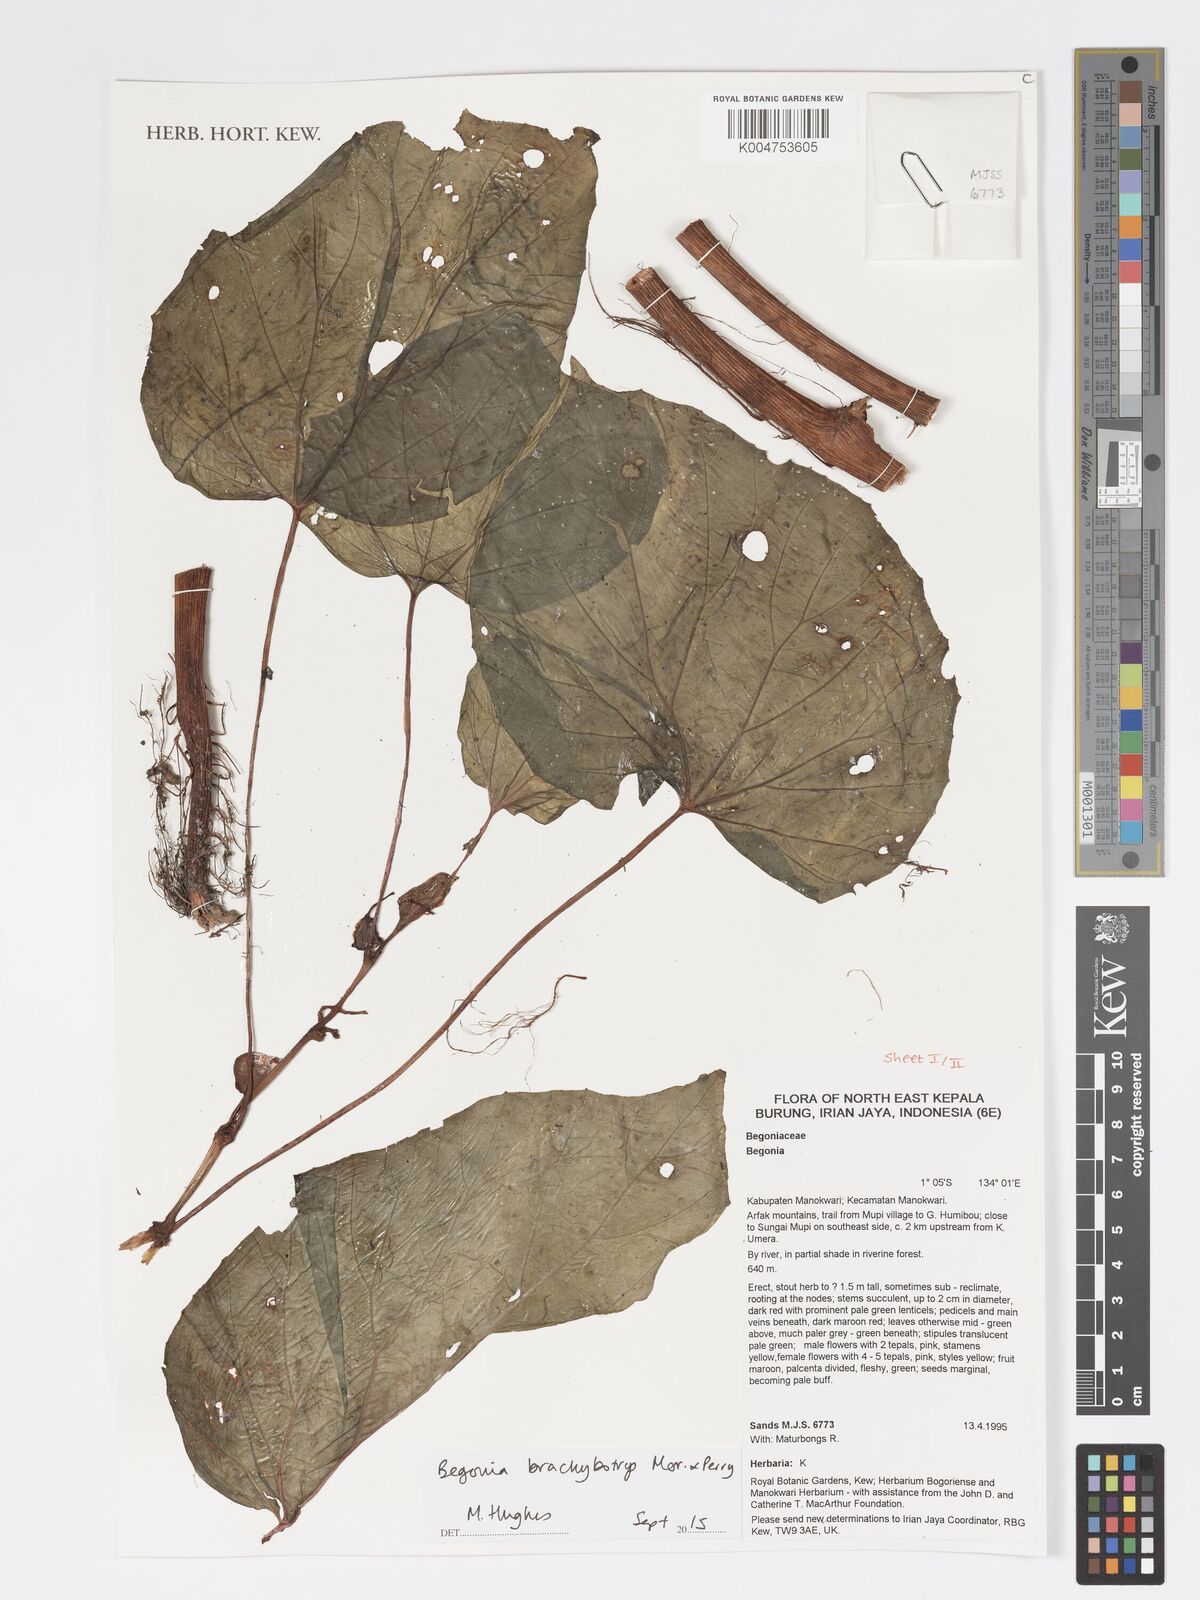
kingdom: Plantae
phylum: Tracheophyta
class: Magnoliopsida
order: Cucurbitales
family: Begoniaceae
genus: Begonia
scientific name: Begonia brachybotrys
